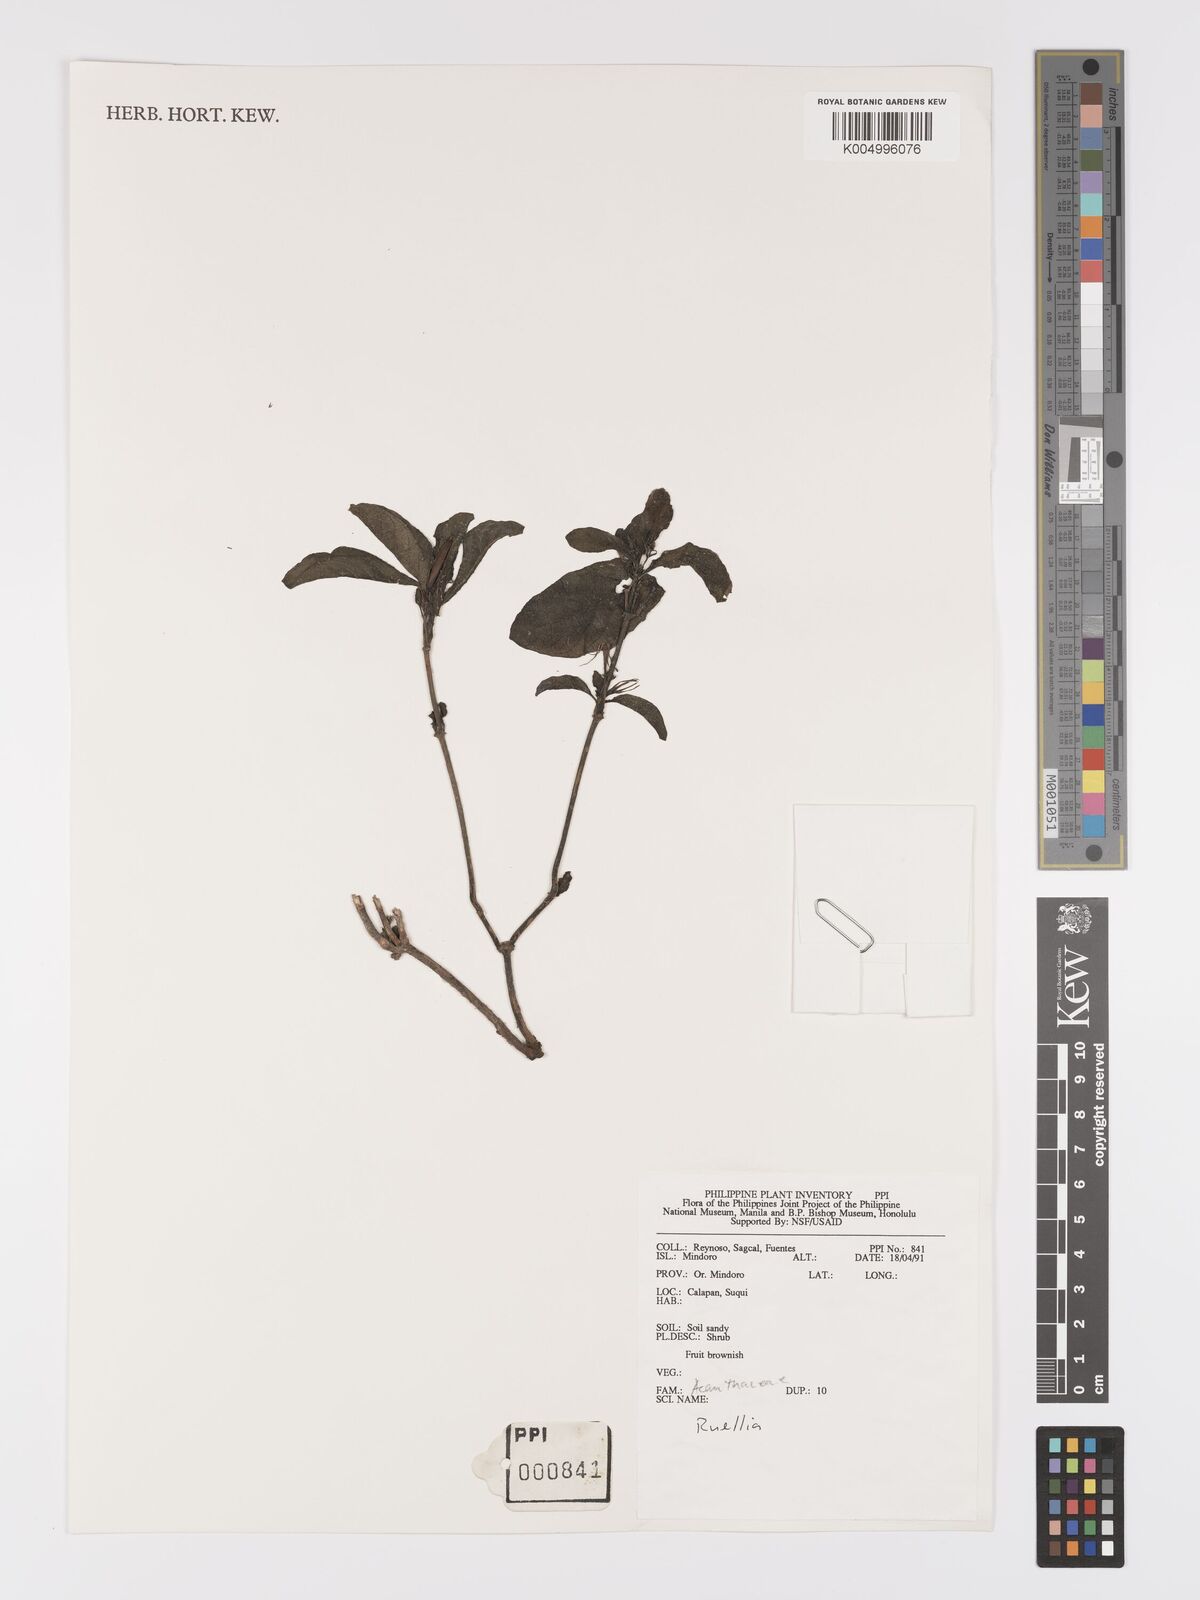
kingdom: Plantae
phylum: Tracheophyta
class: Magnoliopsida
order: Lamiales
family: Acanthaceae
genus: Ruellia
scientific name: Ruellia tuberosa
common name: Devil's bit
